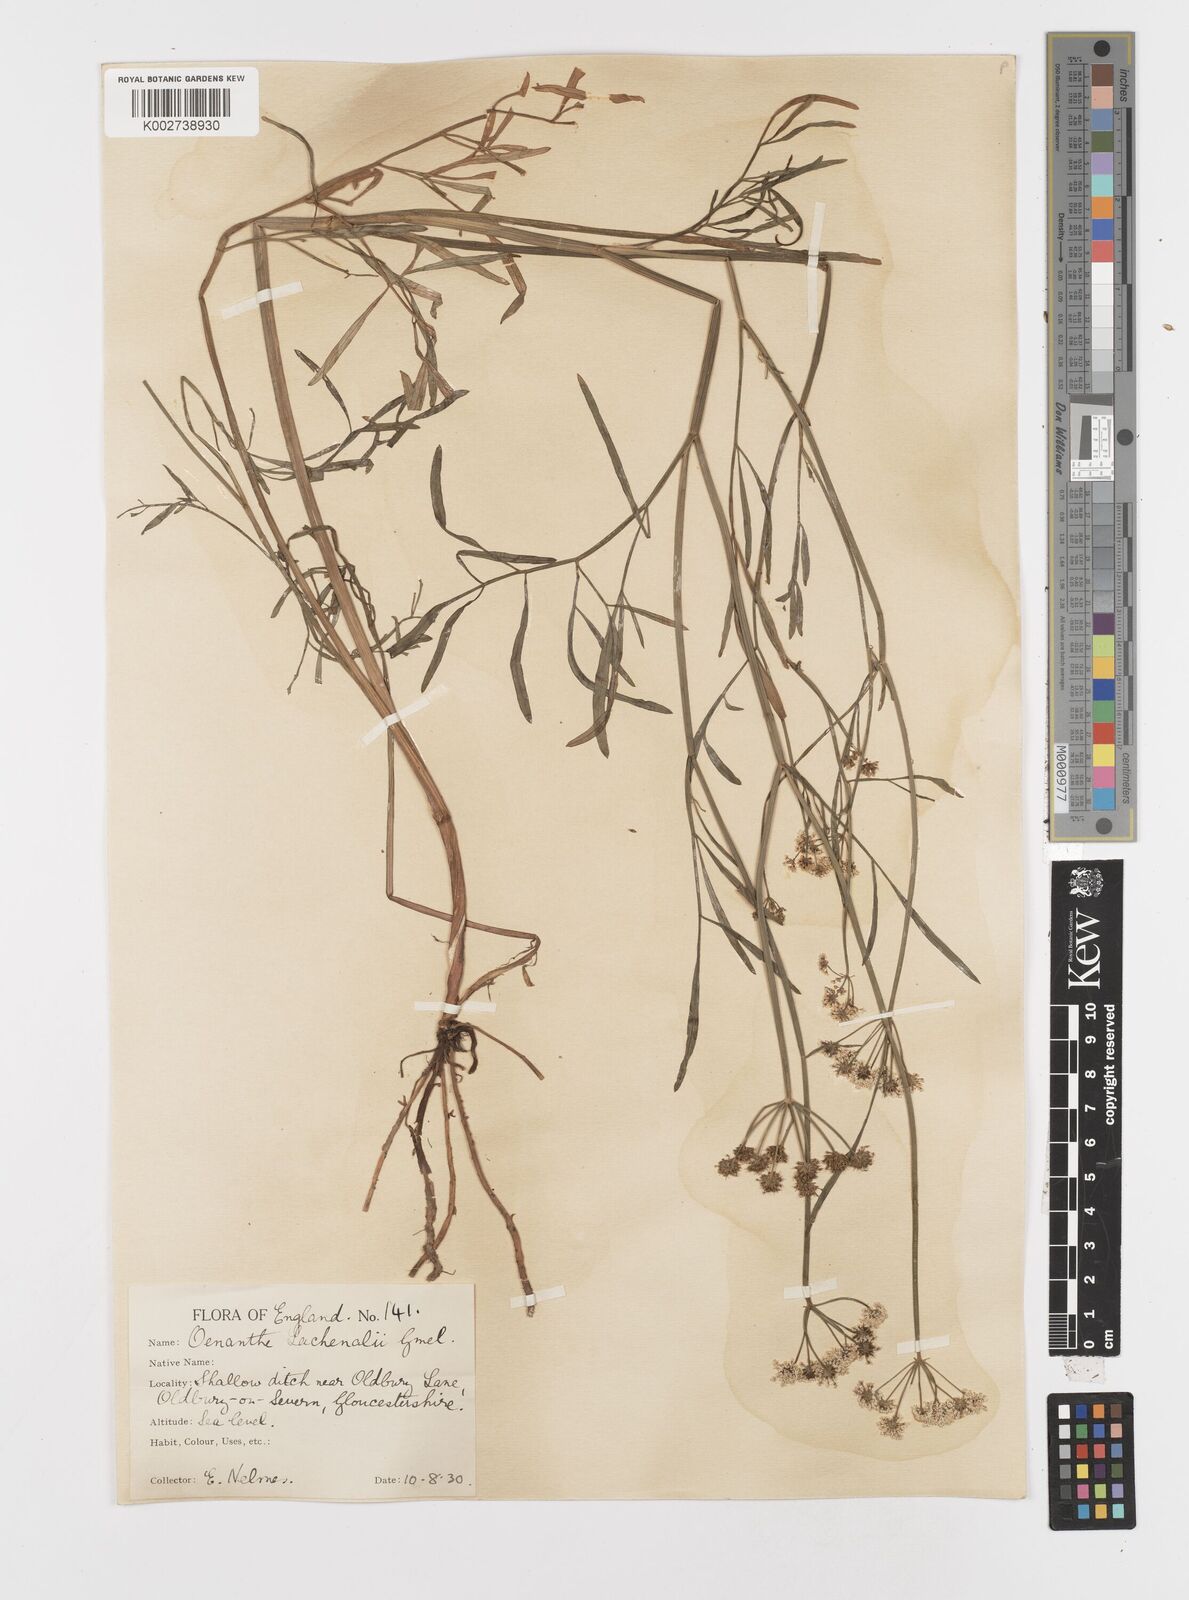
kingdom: Plantae
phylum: Tracheophyta
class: Magnoliopsida
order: Apiales
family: Apiaceae
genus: Oenanthe
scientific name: Oenanthe lachenalii
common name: Parsley water-dropwort
